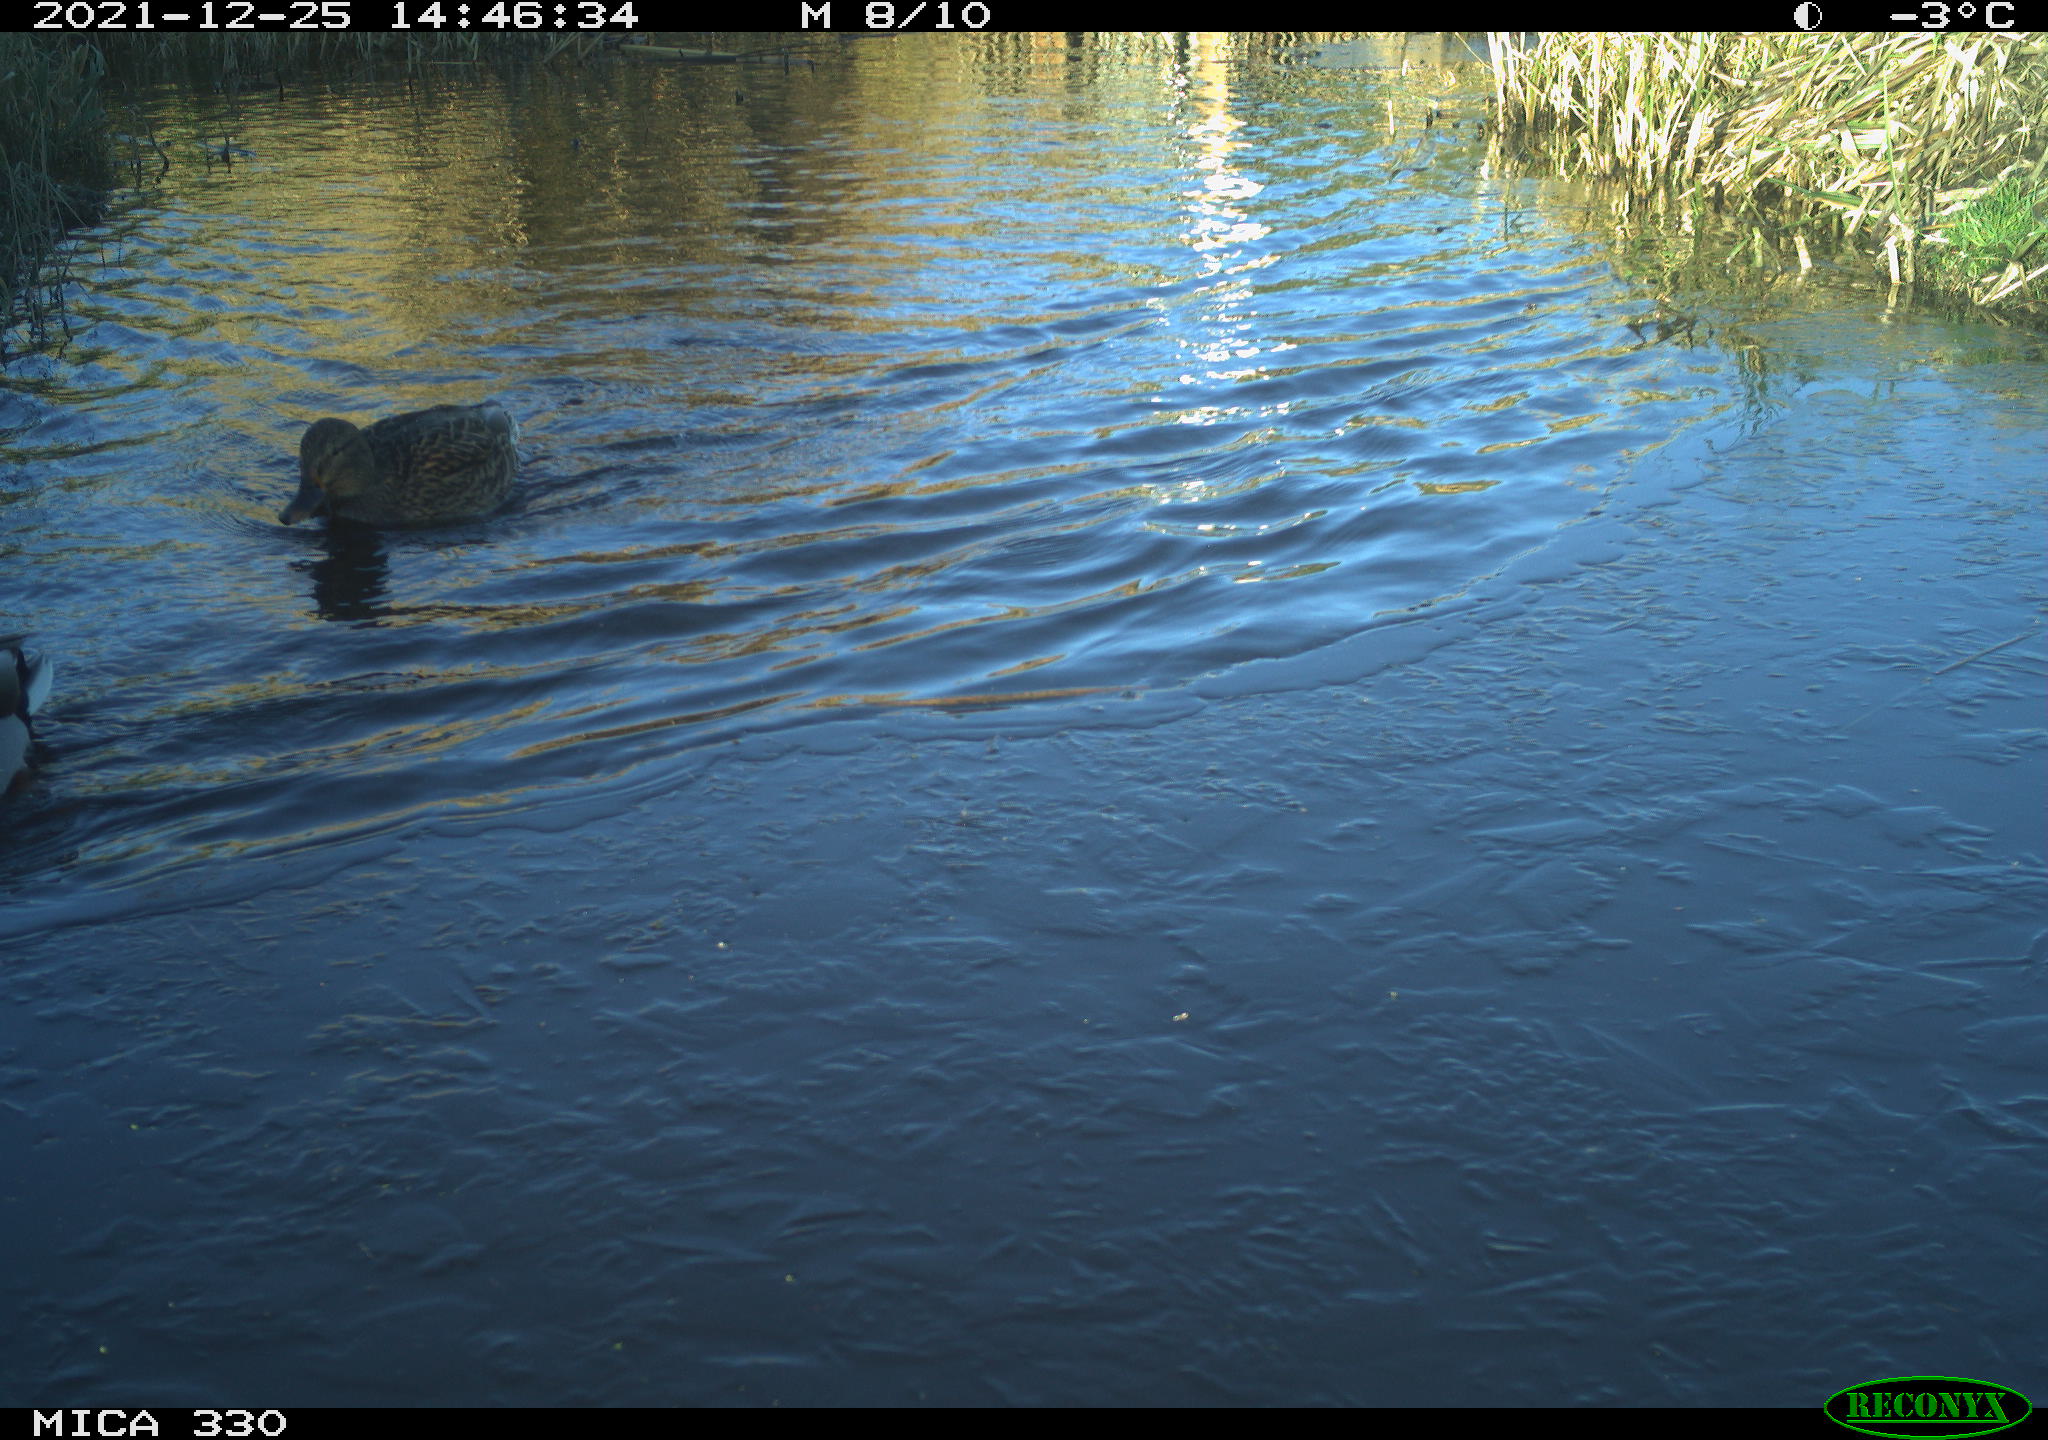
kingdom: Animalia
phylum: Chordata
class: Aves
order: Anseriformes
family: Anatidae
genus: Anas
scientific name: Anas platyrhynchos
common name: Mallard
